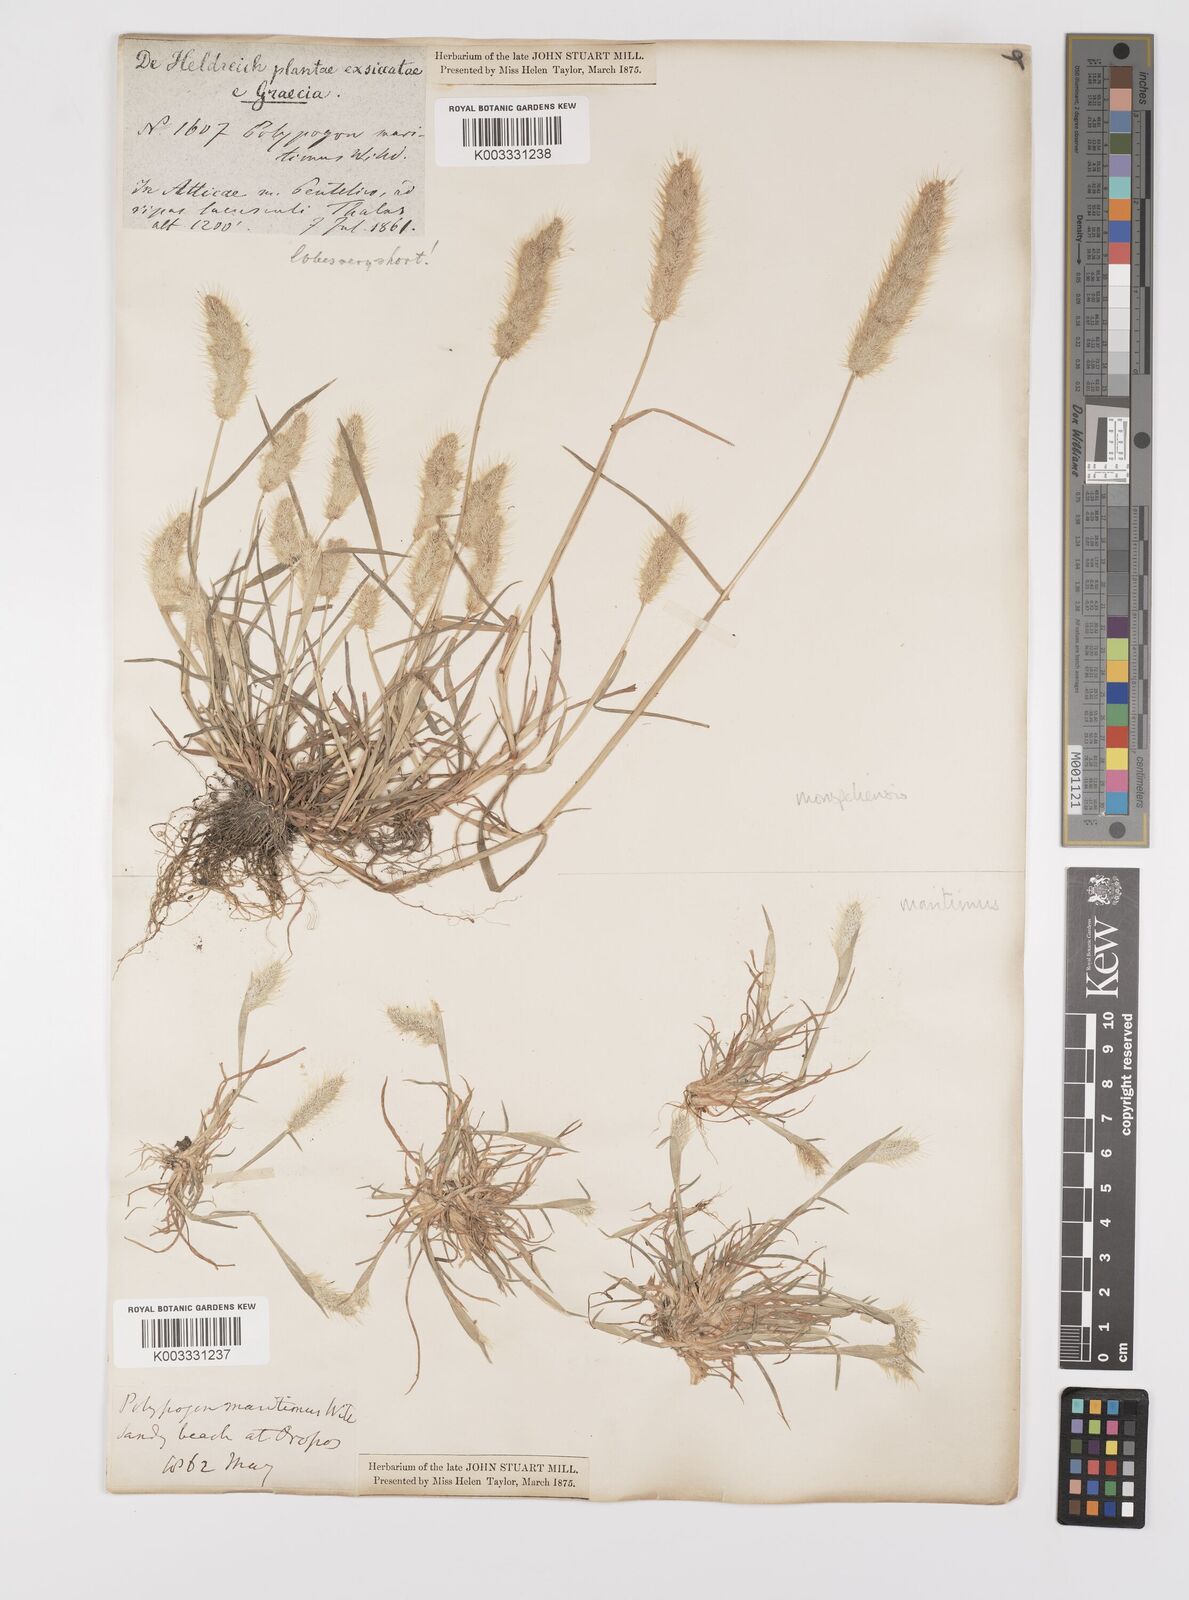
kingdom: Plantae
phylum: Tracheophyta
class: Liliopsida
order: Poales
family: Poaceae
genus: Polypogon
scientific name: Polypogon maritimus
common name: Mediterranean rabbitsfoot grass
